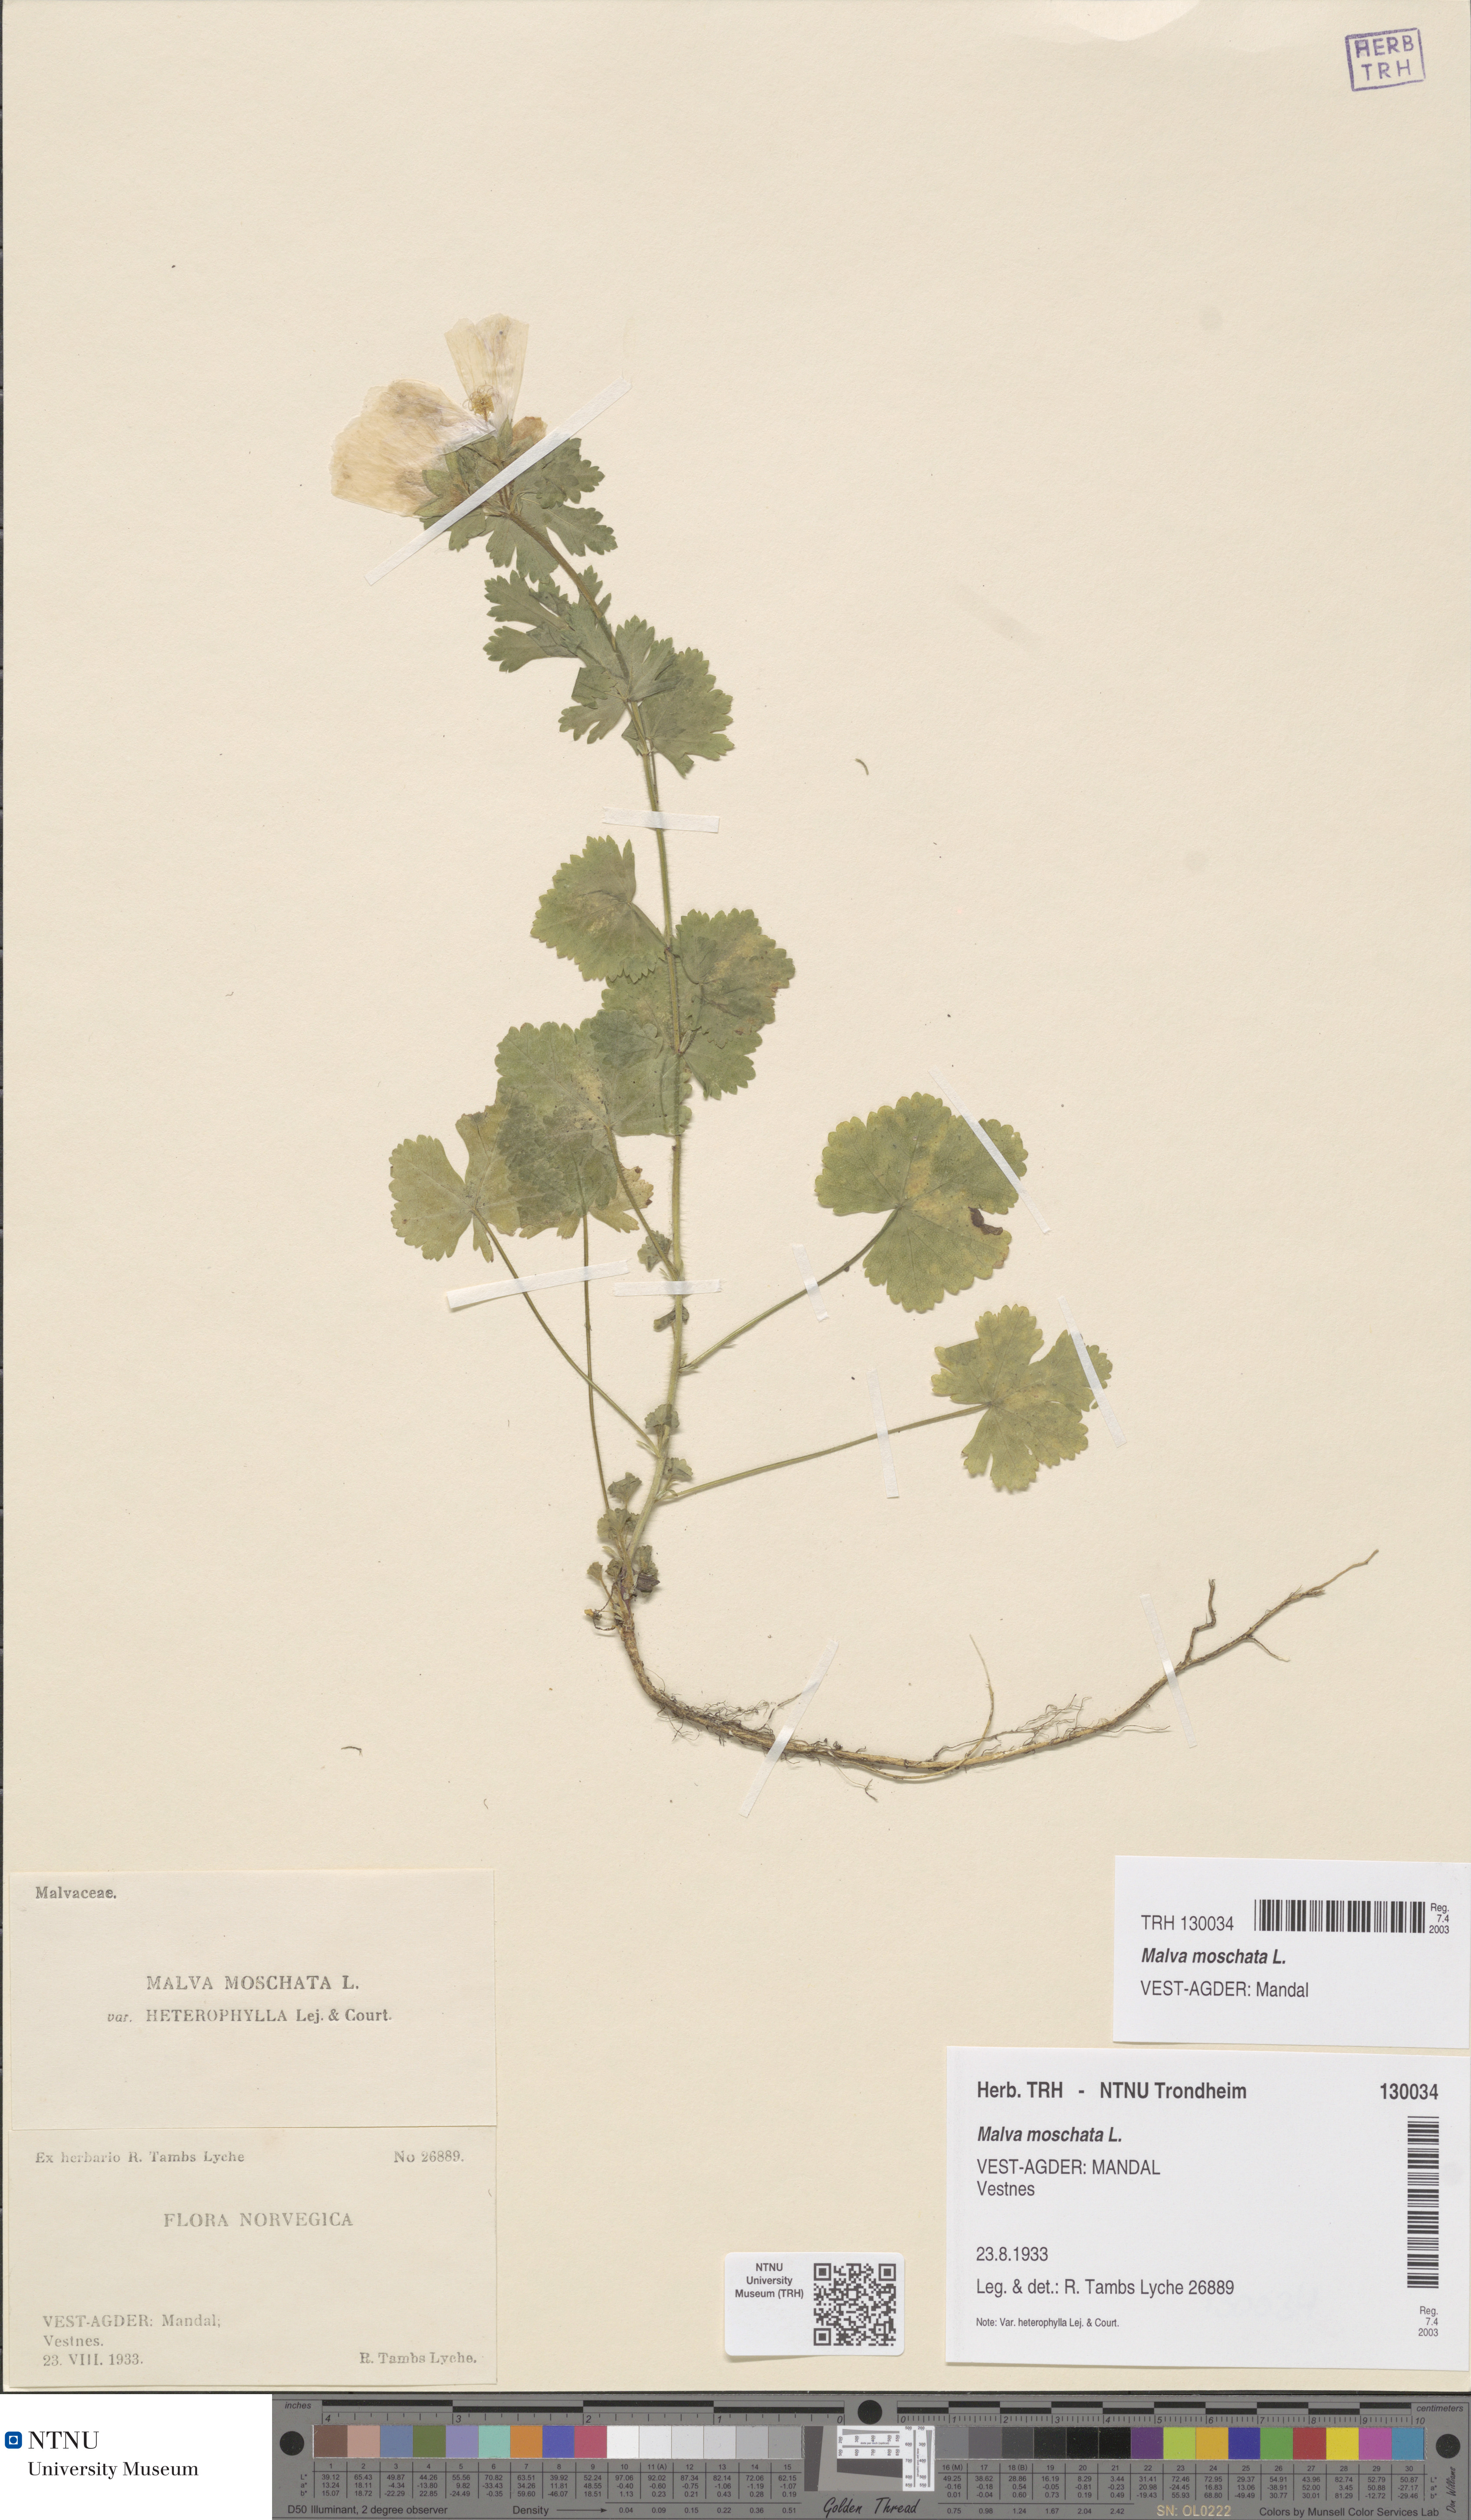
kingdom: Plantae
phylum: Tracheophyta
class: Magnoliopsida
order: Malvales
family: Malvaceae
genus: Malva
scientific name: Malva moschata
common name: Musk mallow
